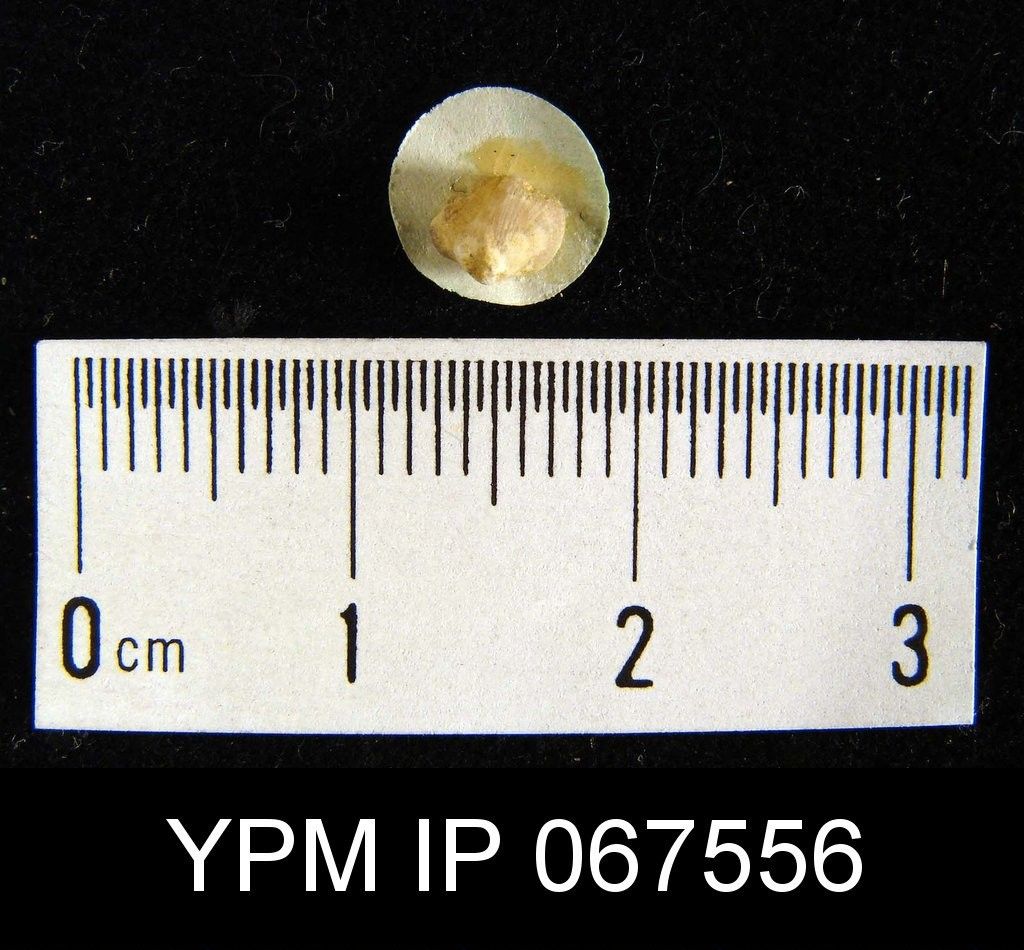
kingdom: Animalia
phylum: Brachiopoda
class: Rhynchonellata
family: Dalmanellidae
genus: Dalmanella
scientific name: Dalmanella
